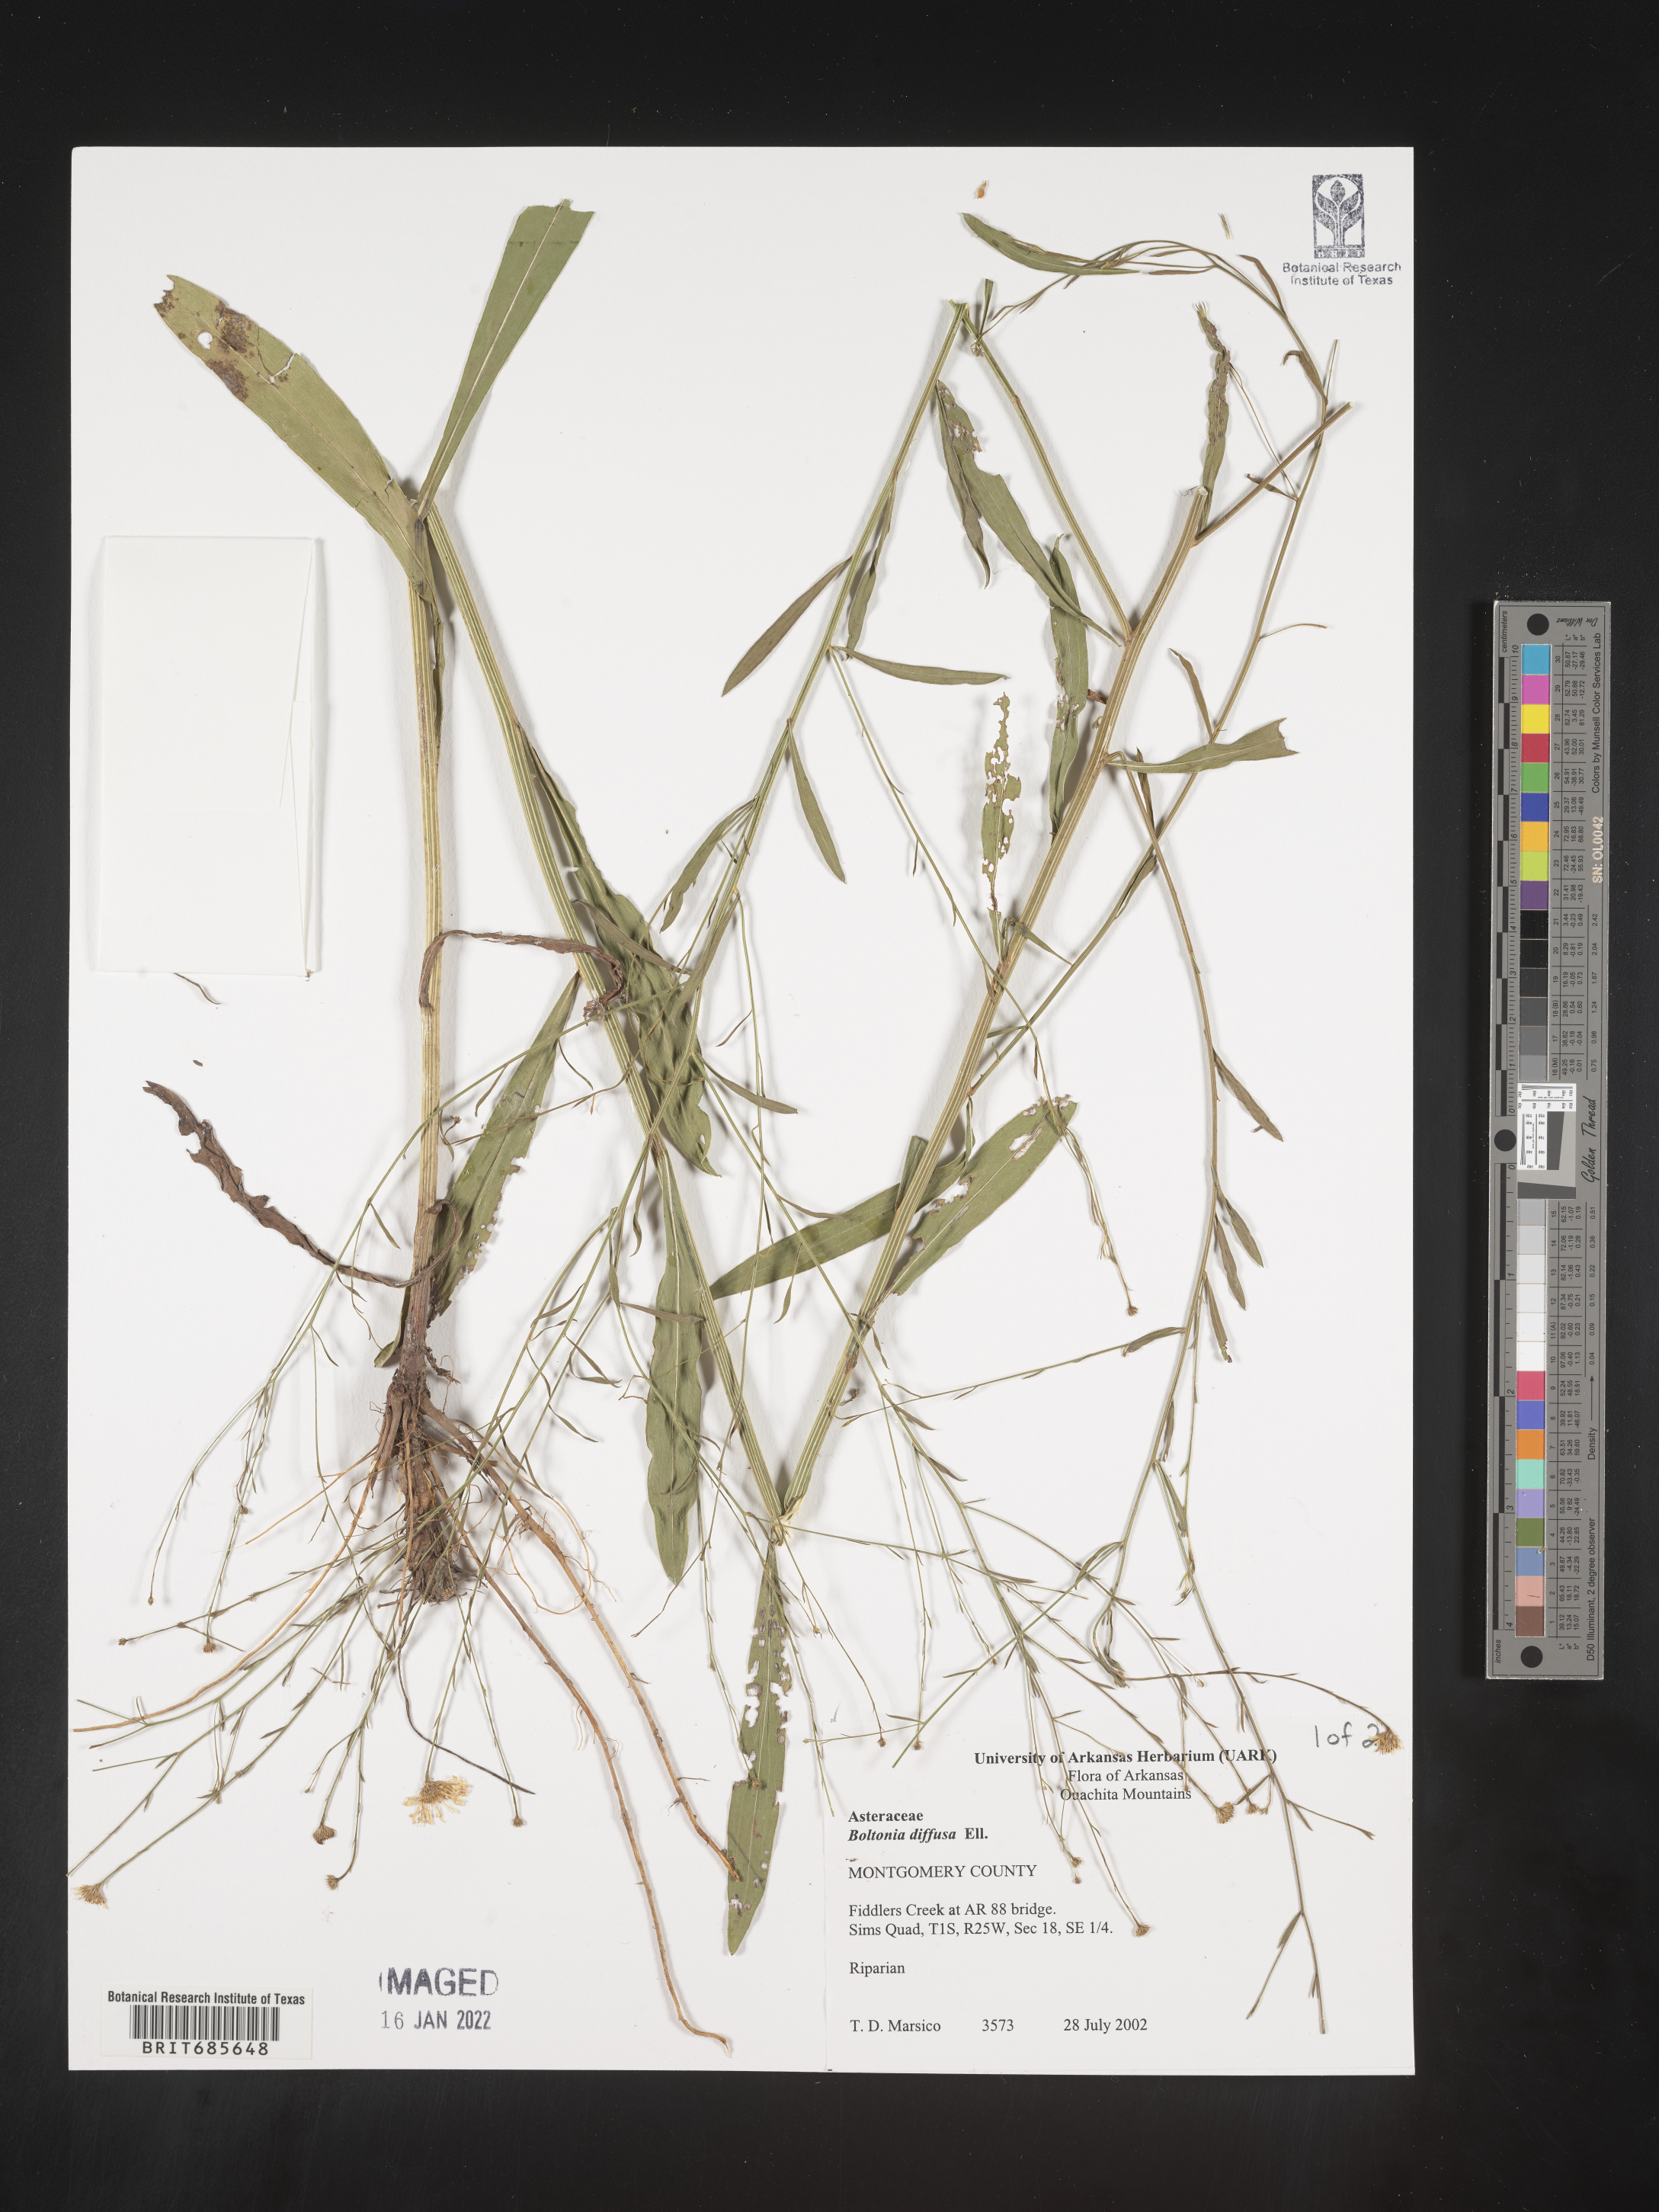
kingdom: Plantae
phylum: Tracheophyta
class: Magnoliopsida
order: Asterales
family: Asteraceae
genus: Boltonia
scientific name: Boltonia diffusa
